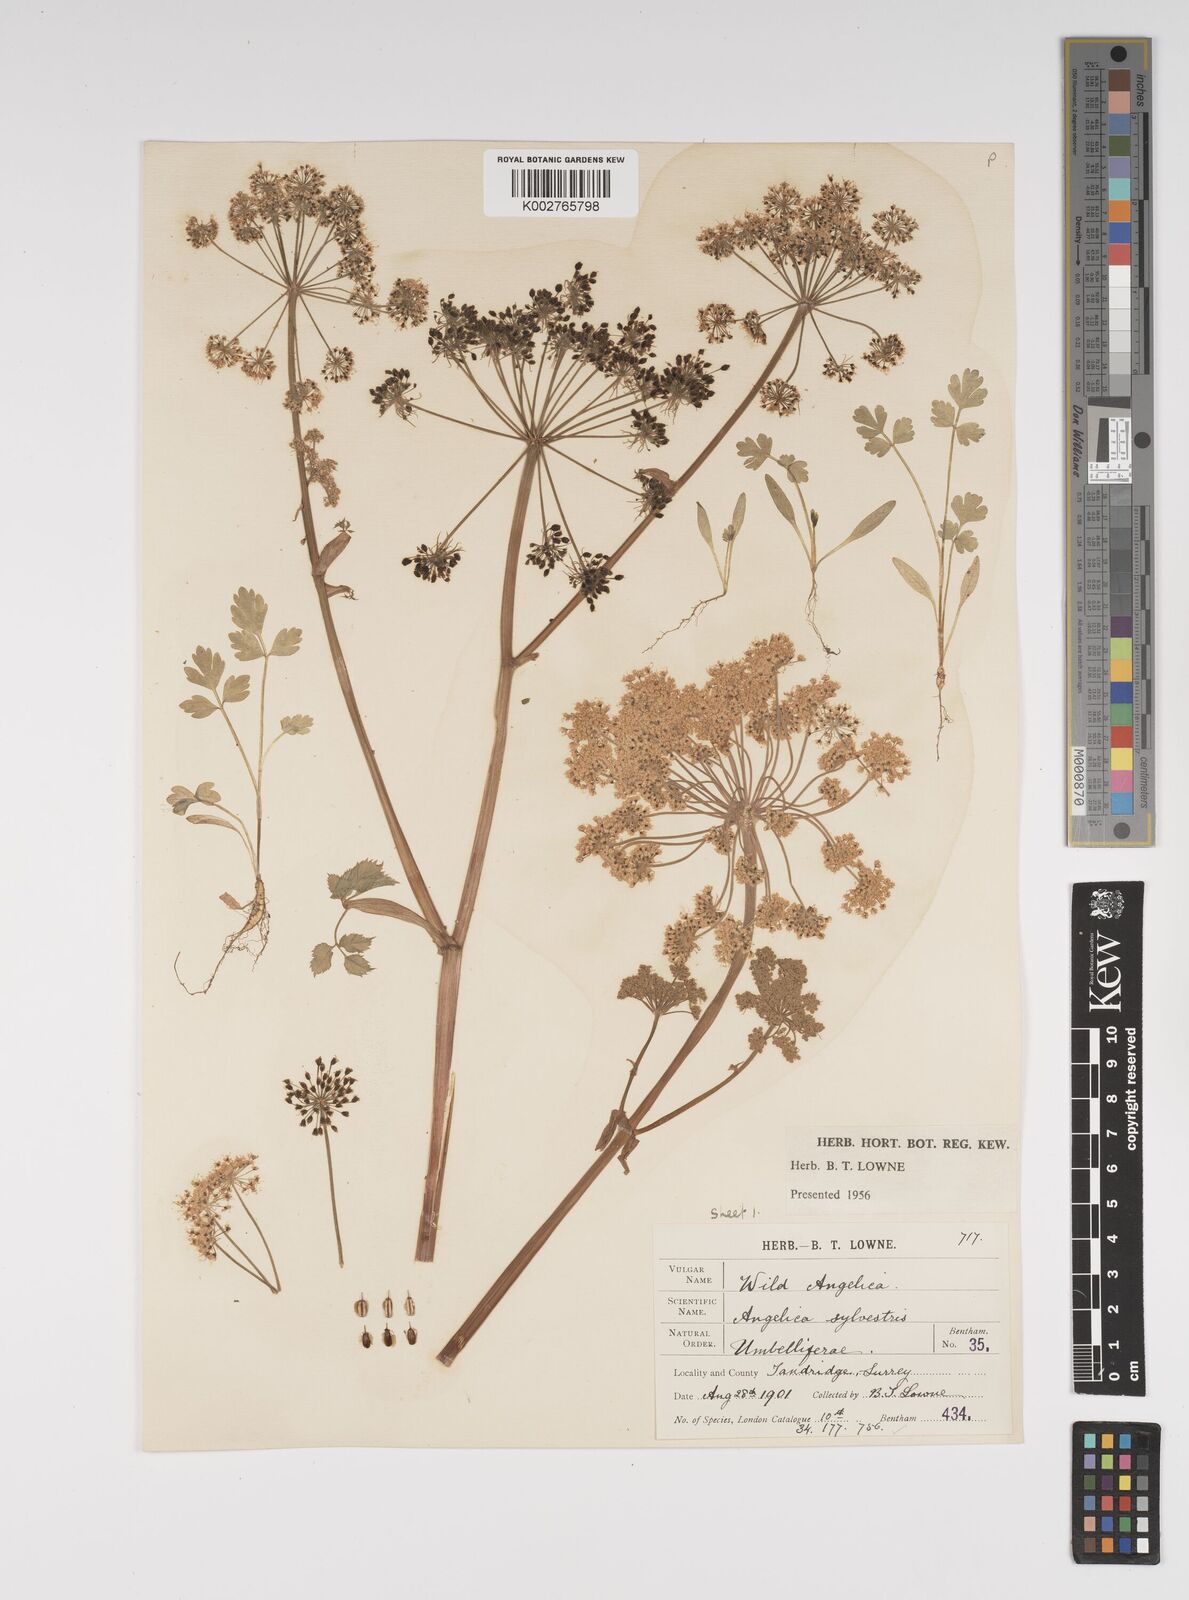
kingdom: Plantae
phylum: Tracheophyta
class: Magnoliopsida
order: Apiales
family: Apiaceae
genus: Angelica
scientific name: Angelica sylvestris
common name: Wild angelica
